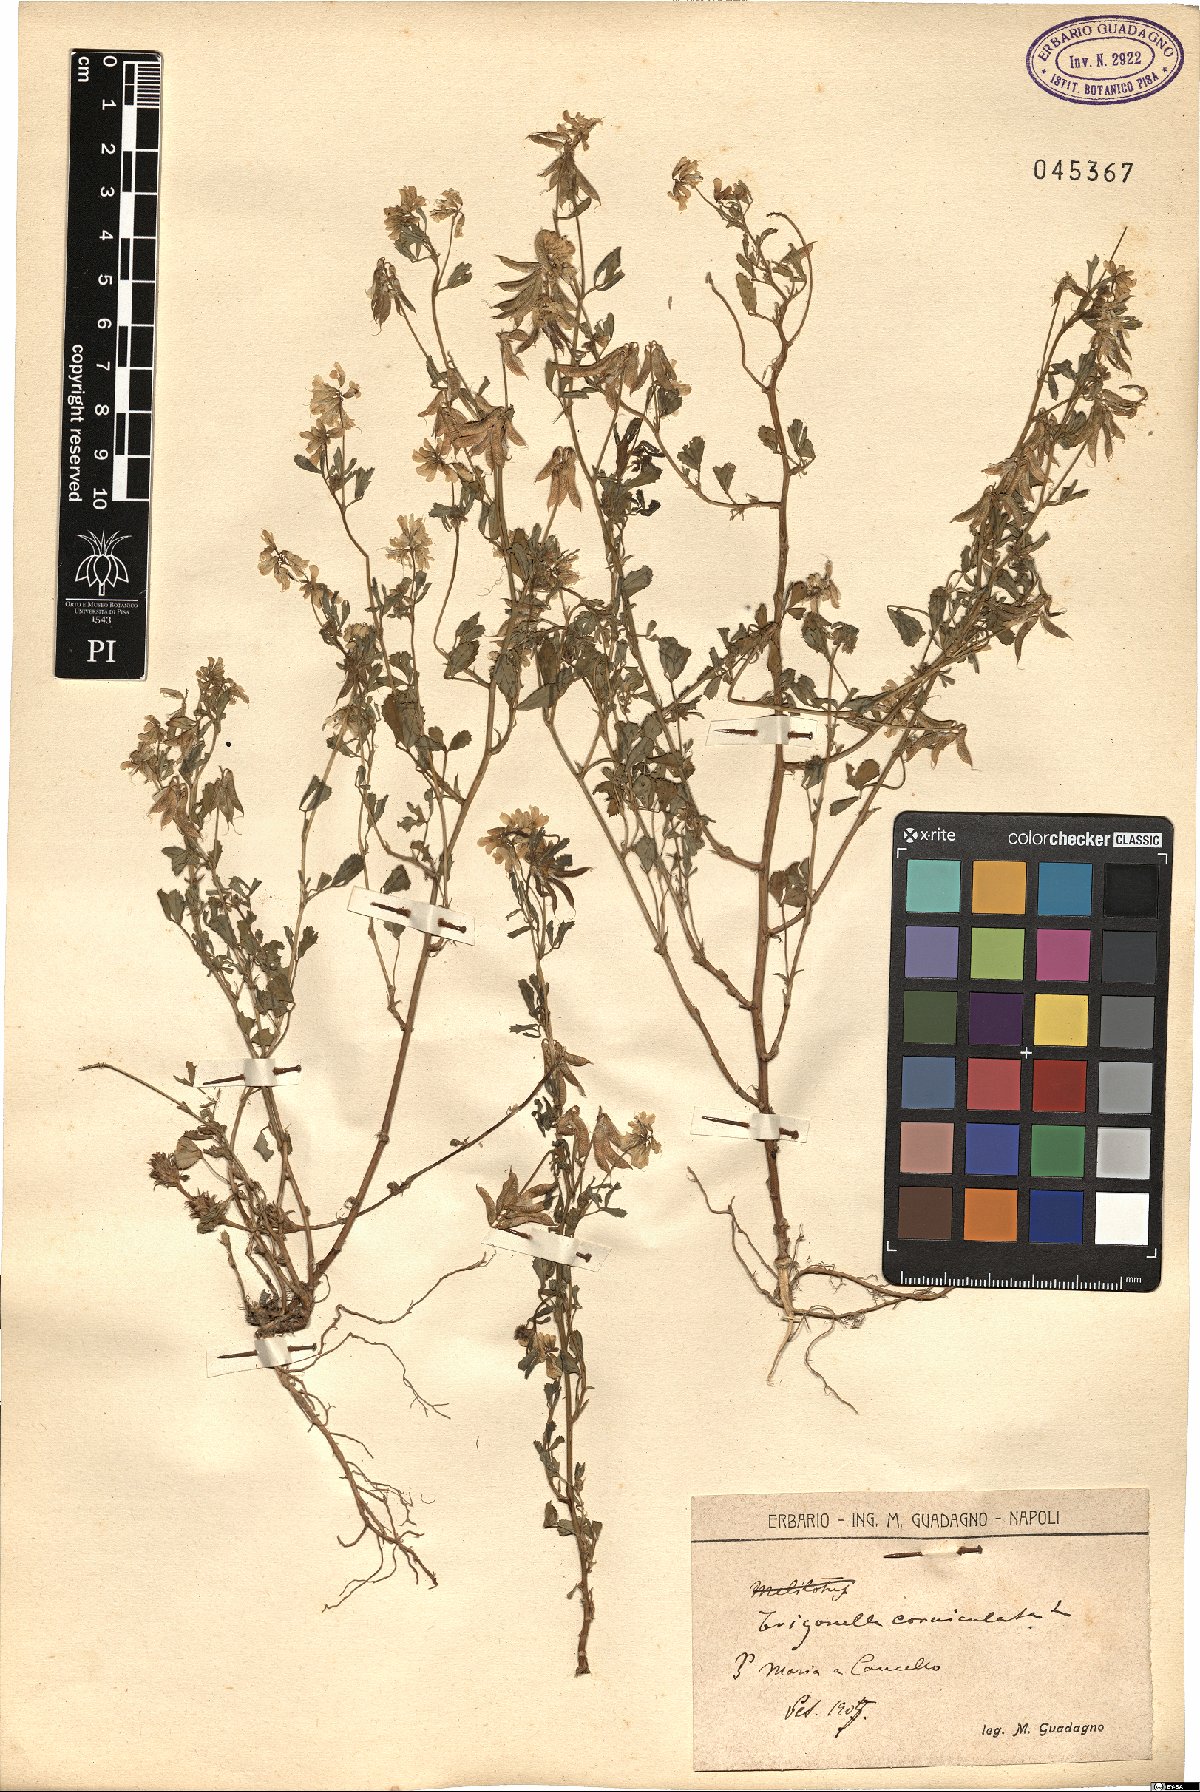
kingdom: Plantae
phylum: Tracheophyta
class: Magnoliopsida
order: Fabales
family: Fabaceae
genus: Trigonella
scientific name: Trigonella balansae
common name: Sickle-fruited fenugreek
